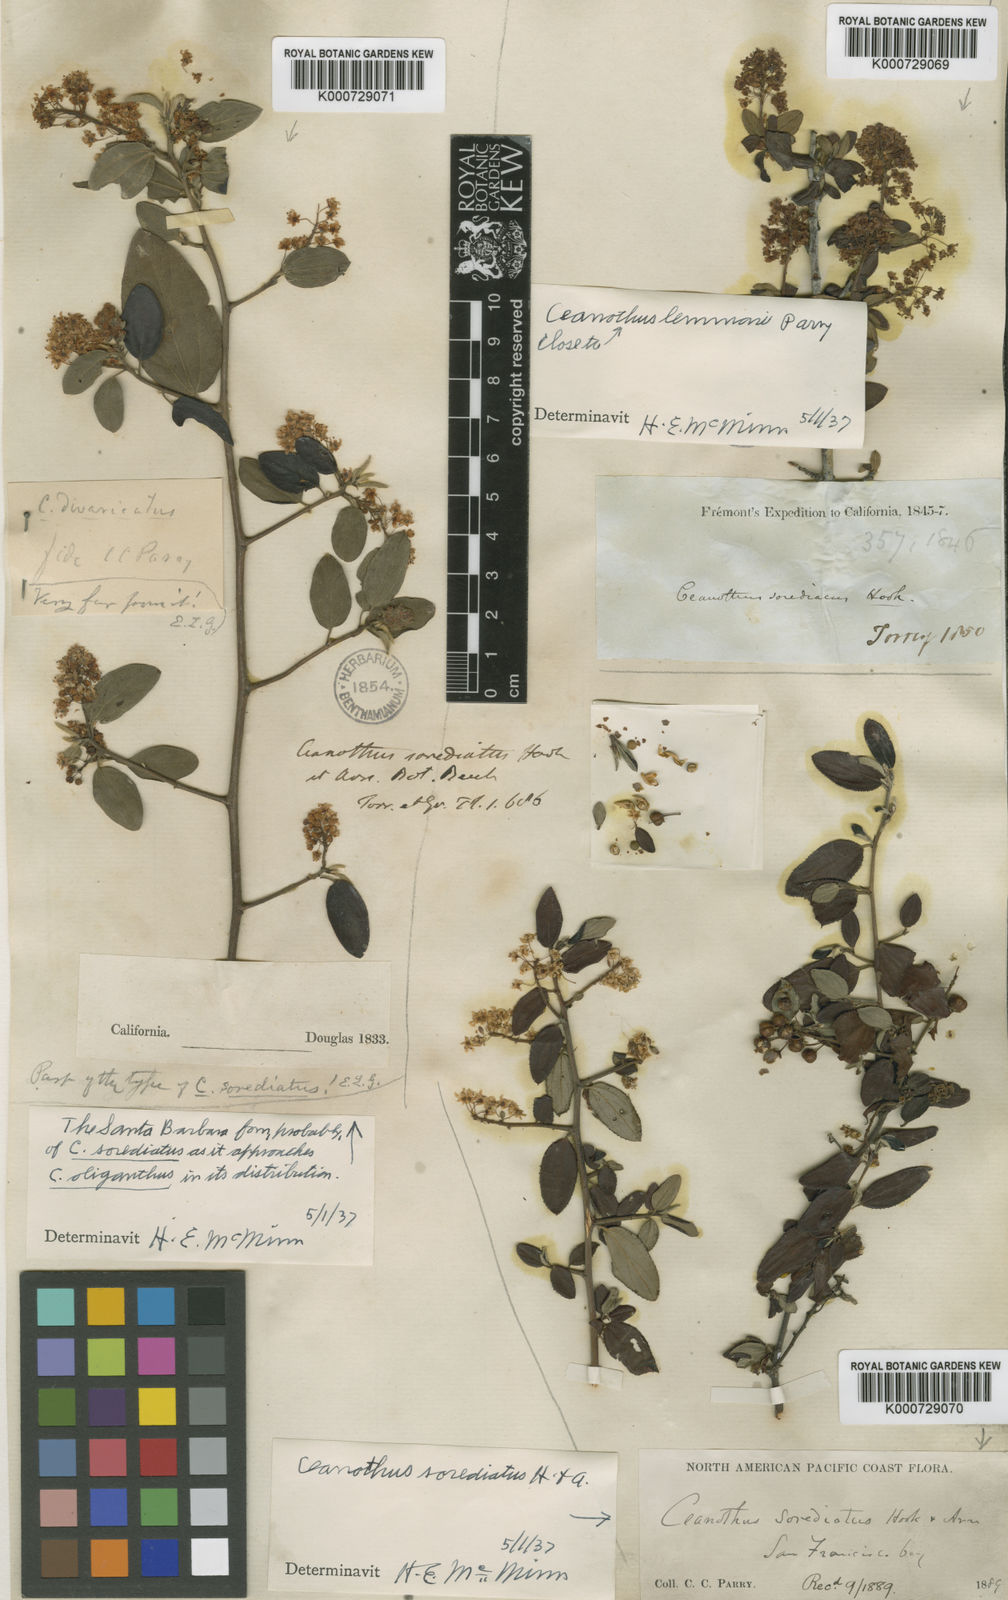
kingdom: Plantae
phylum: Tracheophyta
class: Magnoliopsida
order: Rosales
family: Rhamnaceae
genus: Ceanothus
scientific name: Ceanothus sorediatus
